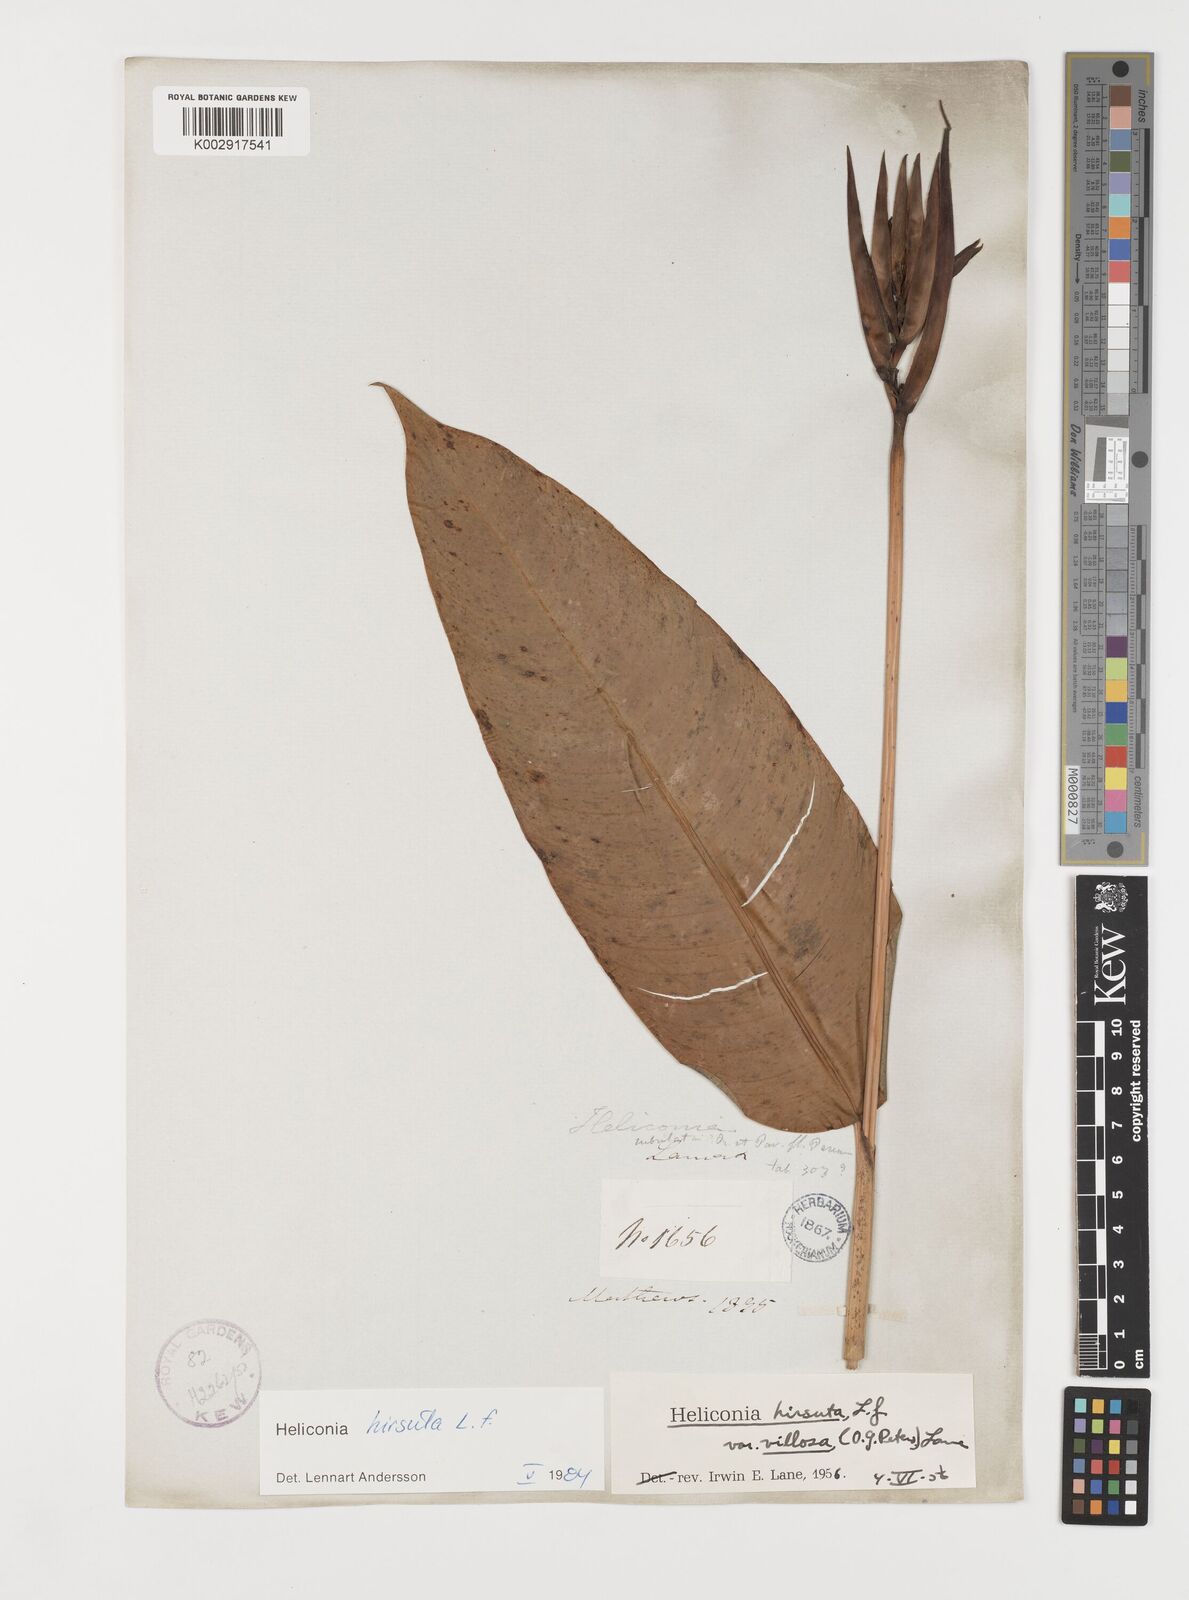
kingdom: Plantae
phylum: Tracheophyta
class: Liliopsida
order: Zingiberales
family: Heliconiaceae
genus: Heliconia
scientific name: Heliconia hirsuta
